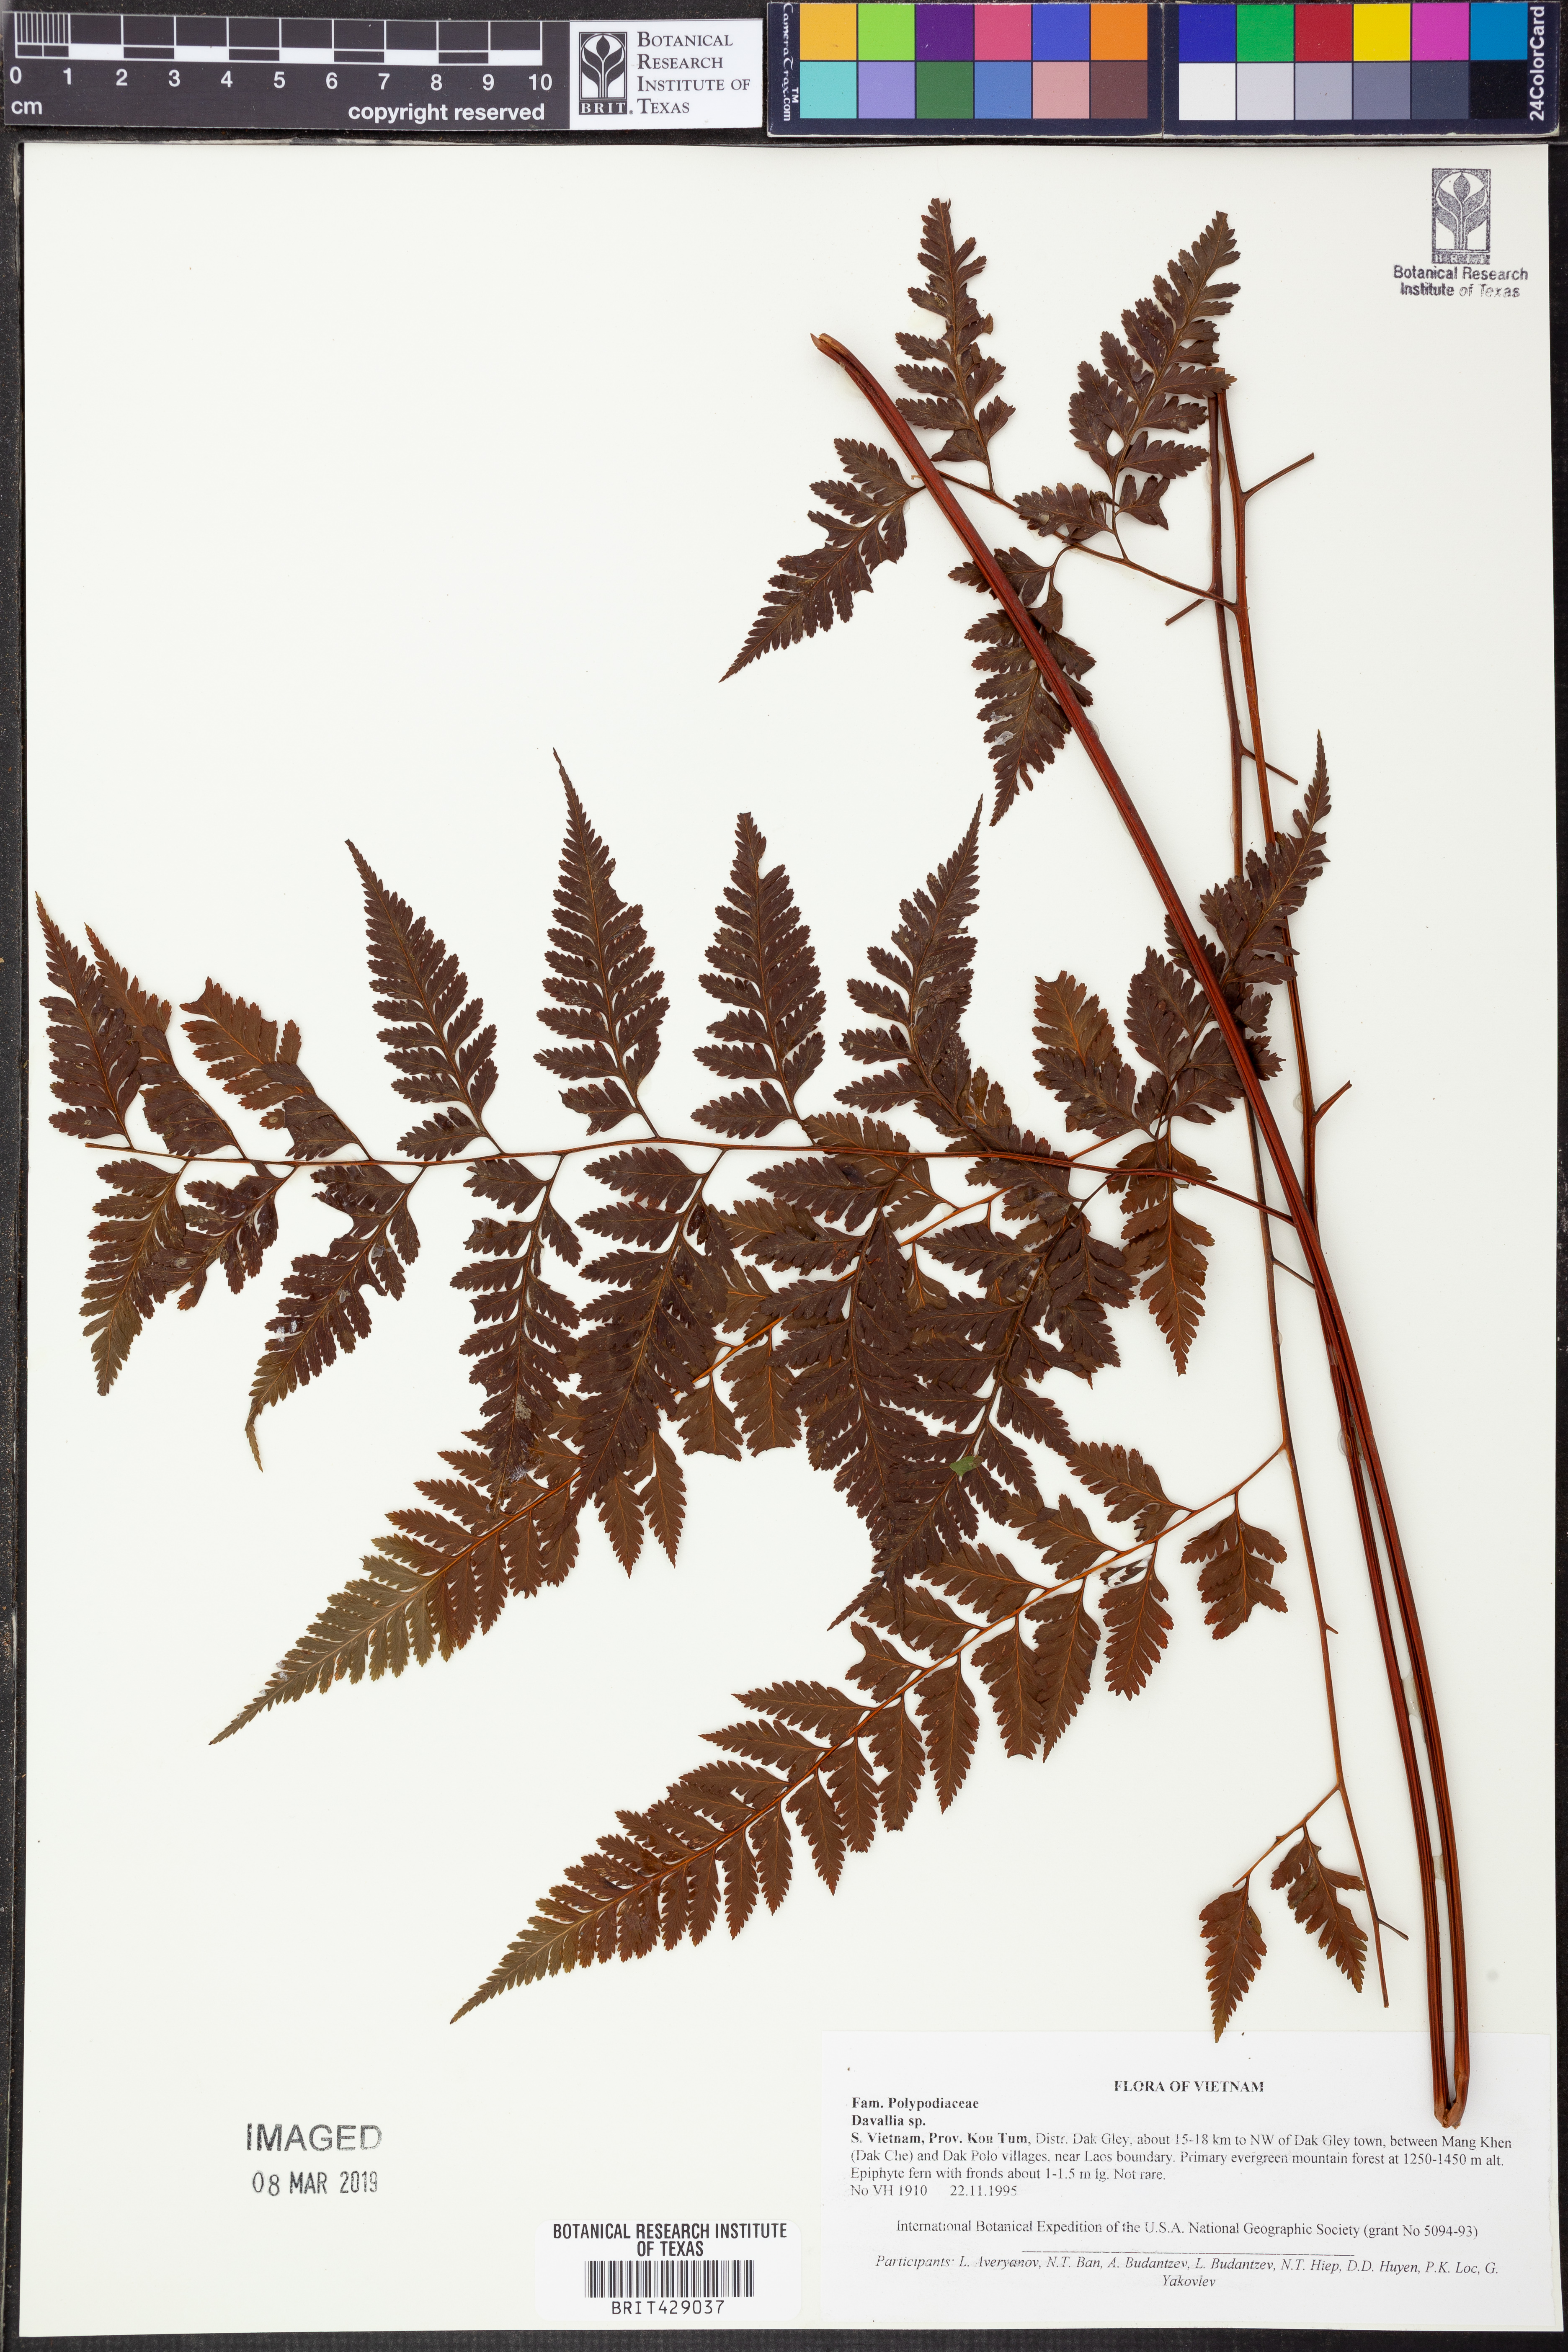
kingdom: Plantae
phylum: Tracheophyta
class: Polypodiopsida
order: Polypodiales
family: Davalliaceae
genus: Davallia
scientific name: Davallia
